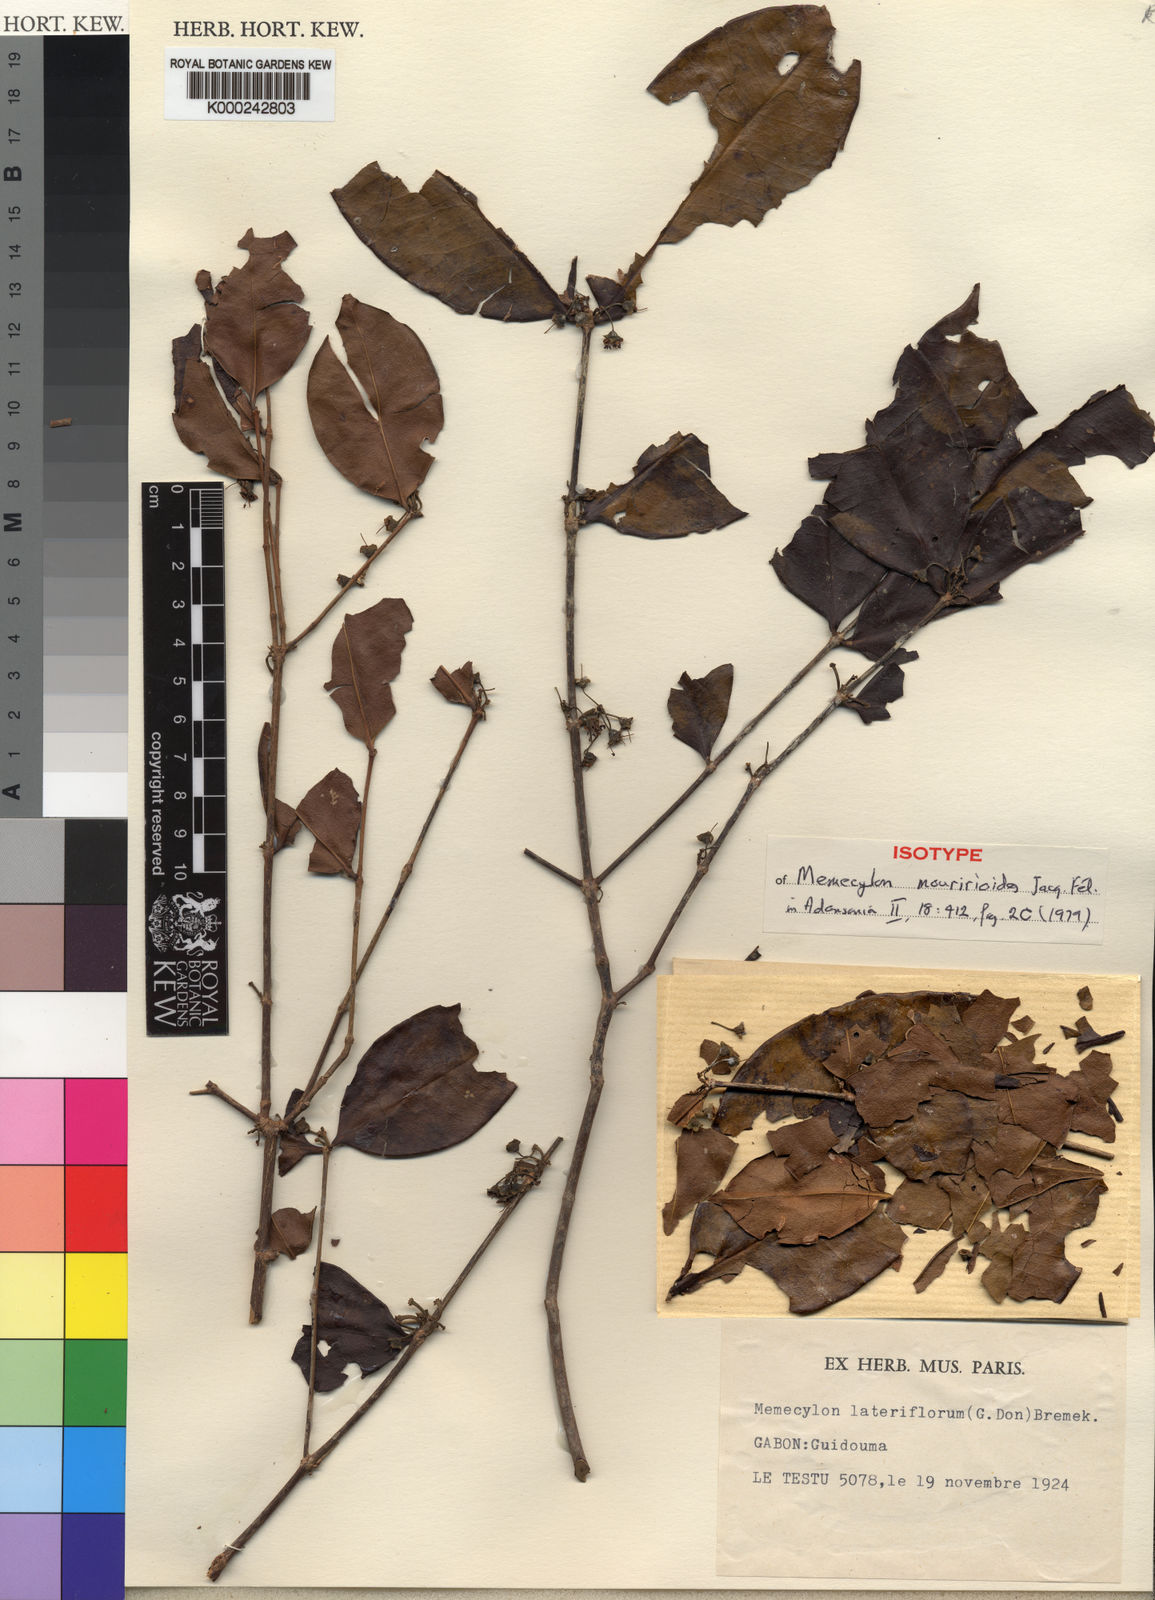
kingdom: Plantae
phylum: Tracheophyta
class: Magnoliopsida
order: Myrtales
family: Melastomataceae
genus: Memecylon
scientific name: Memecylon
